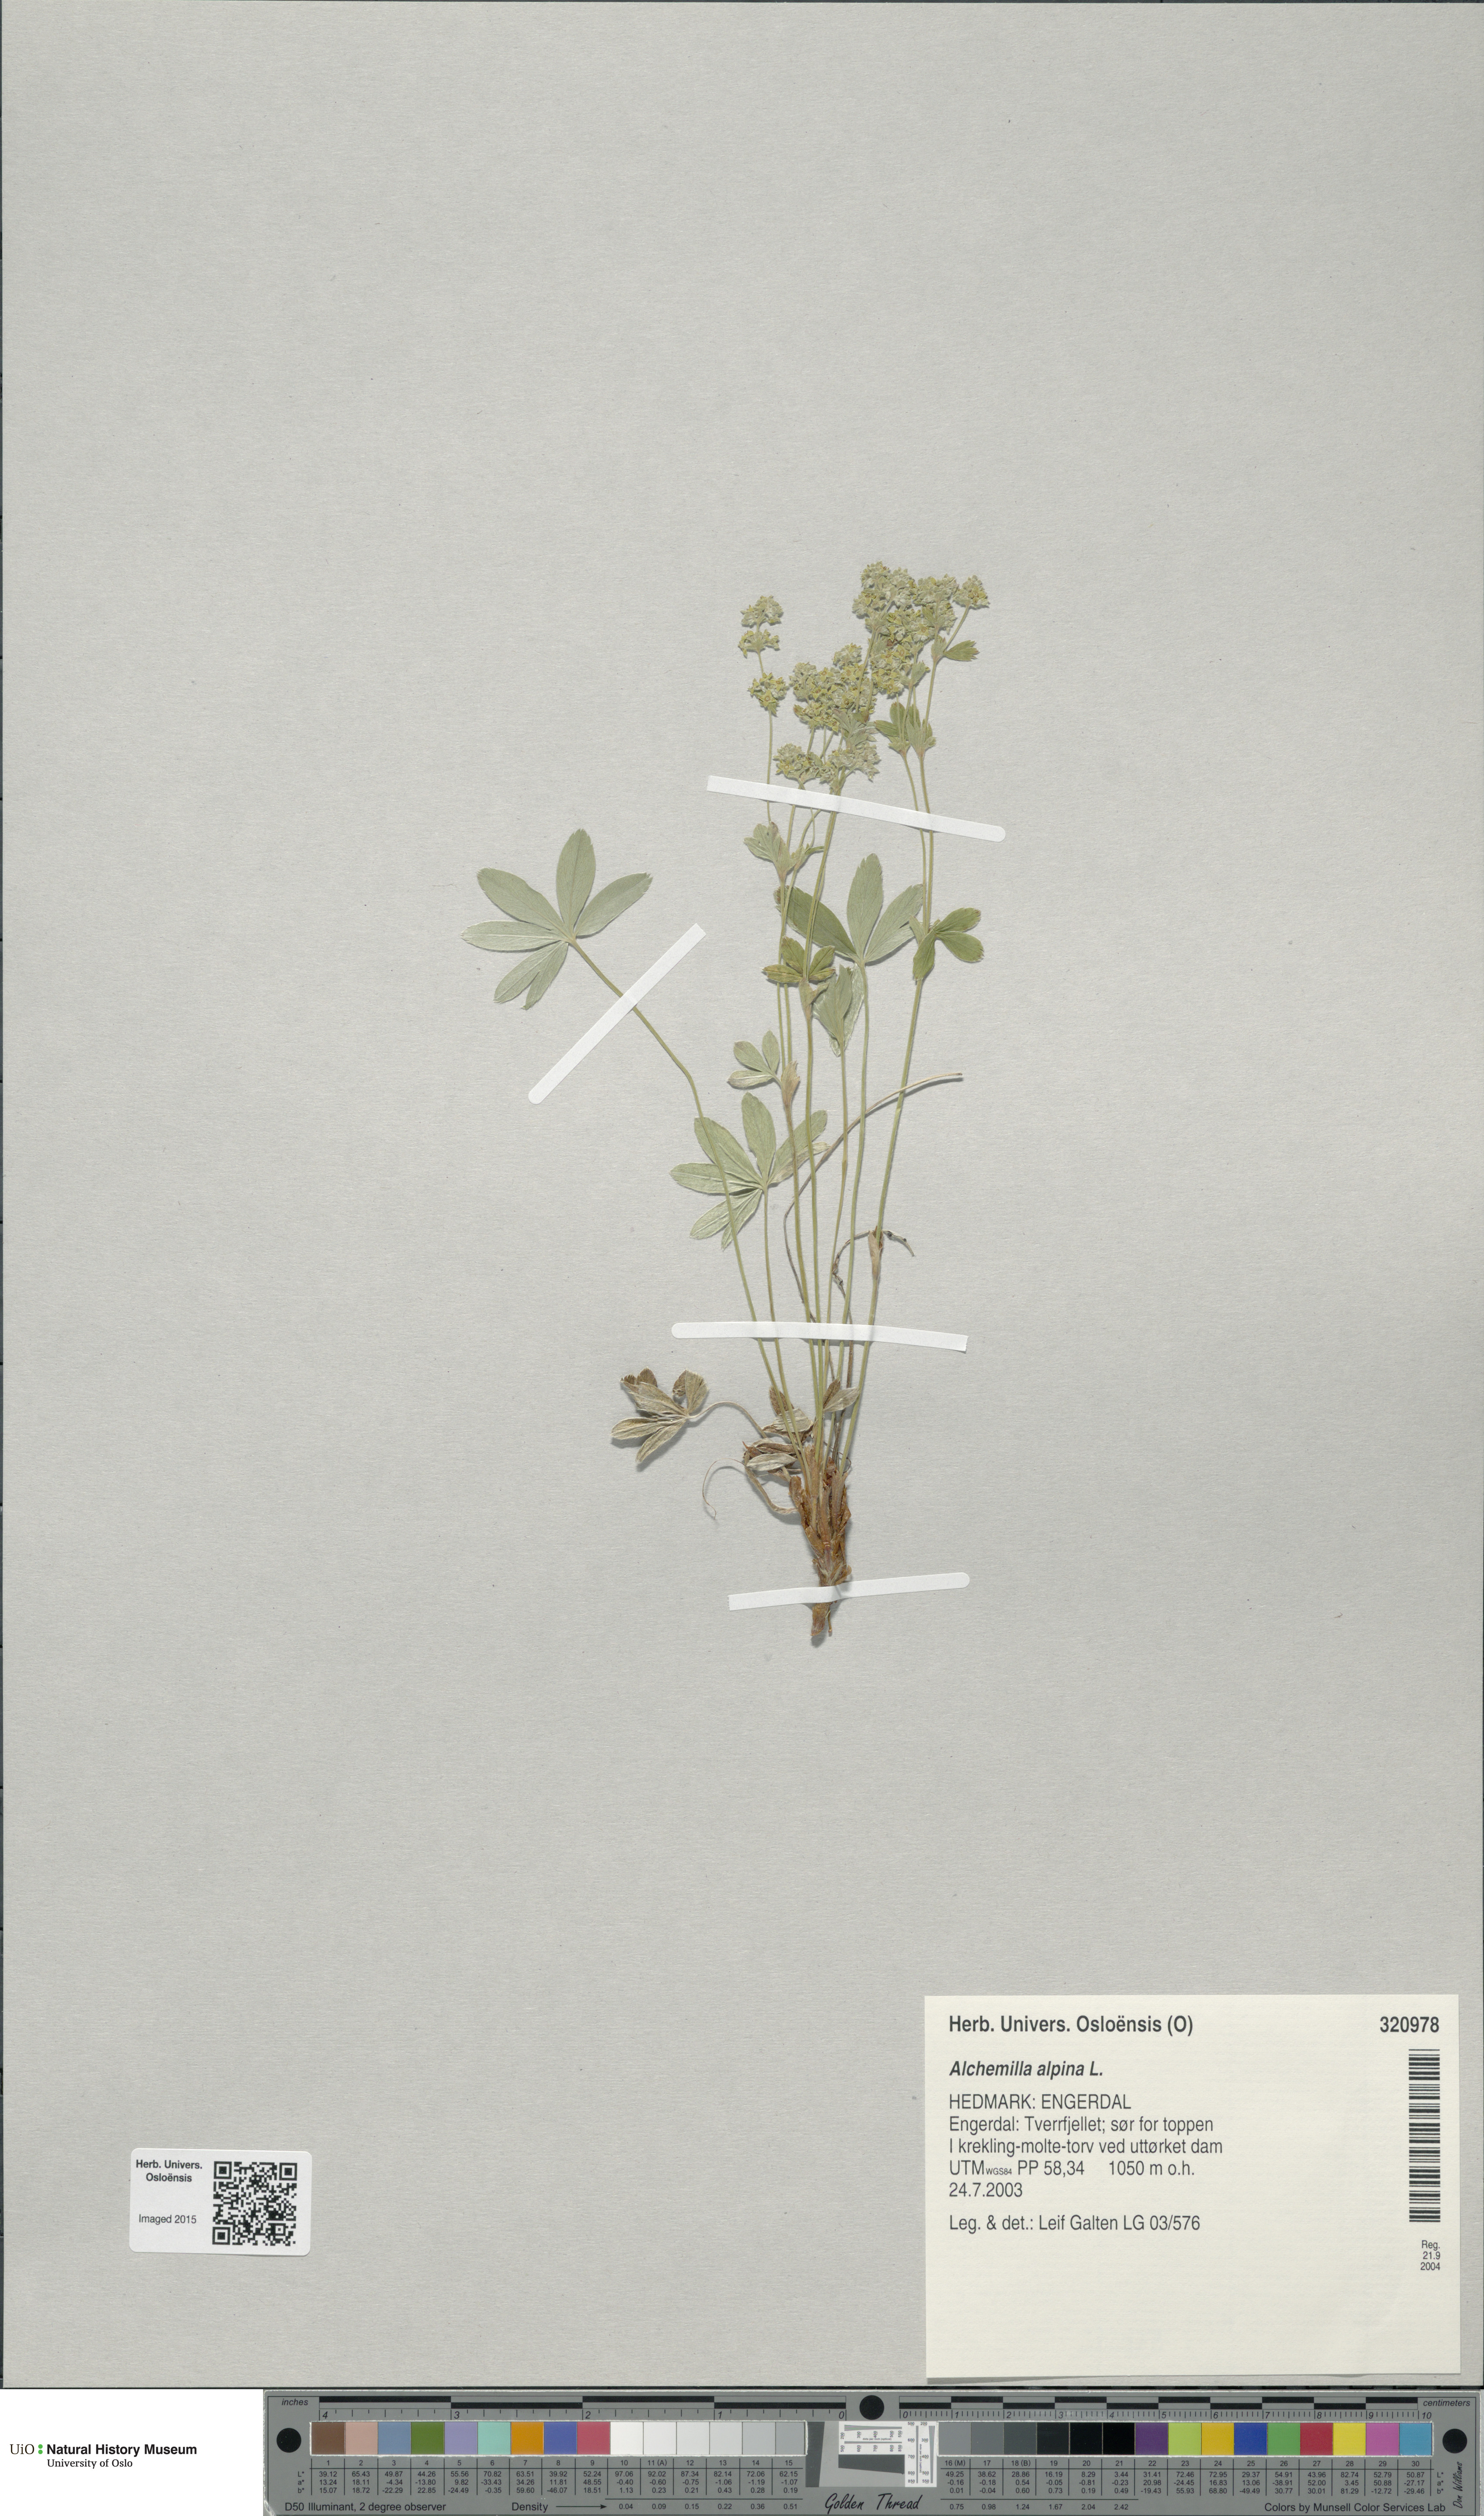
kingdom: Plantae
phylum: Tracheophyta
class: Magnoliopsida
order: Rosales
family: Rosaceae
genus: Alchemilla
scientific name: Alchemilla alpina
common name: Alpine lady's-mantle
